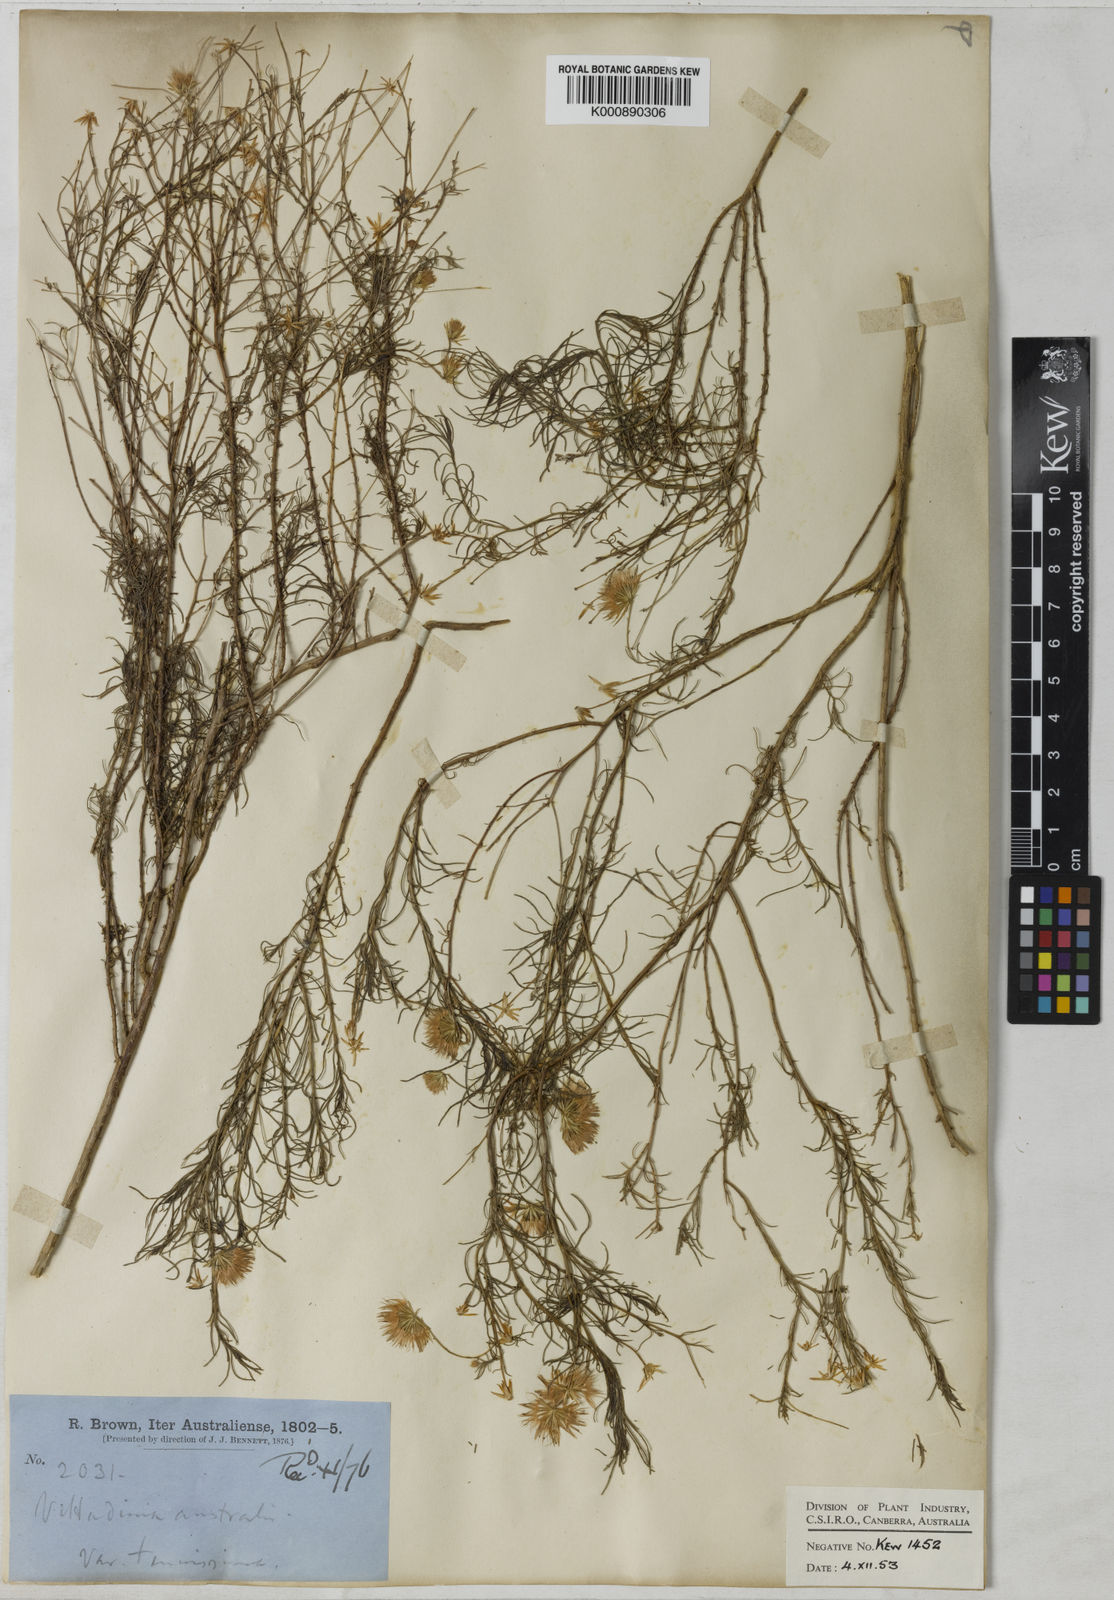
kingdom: Plantae
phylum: Tracheophyta
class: Magnoliopsida
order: Asterales
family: Asteraceae
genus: Vittadinia
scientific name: Vittadinia tenuissima
